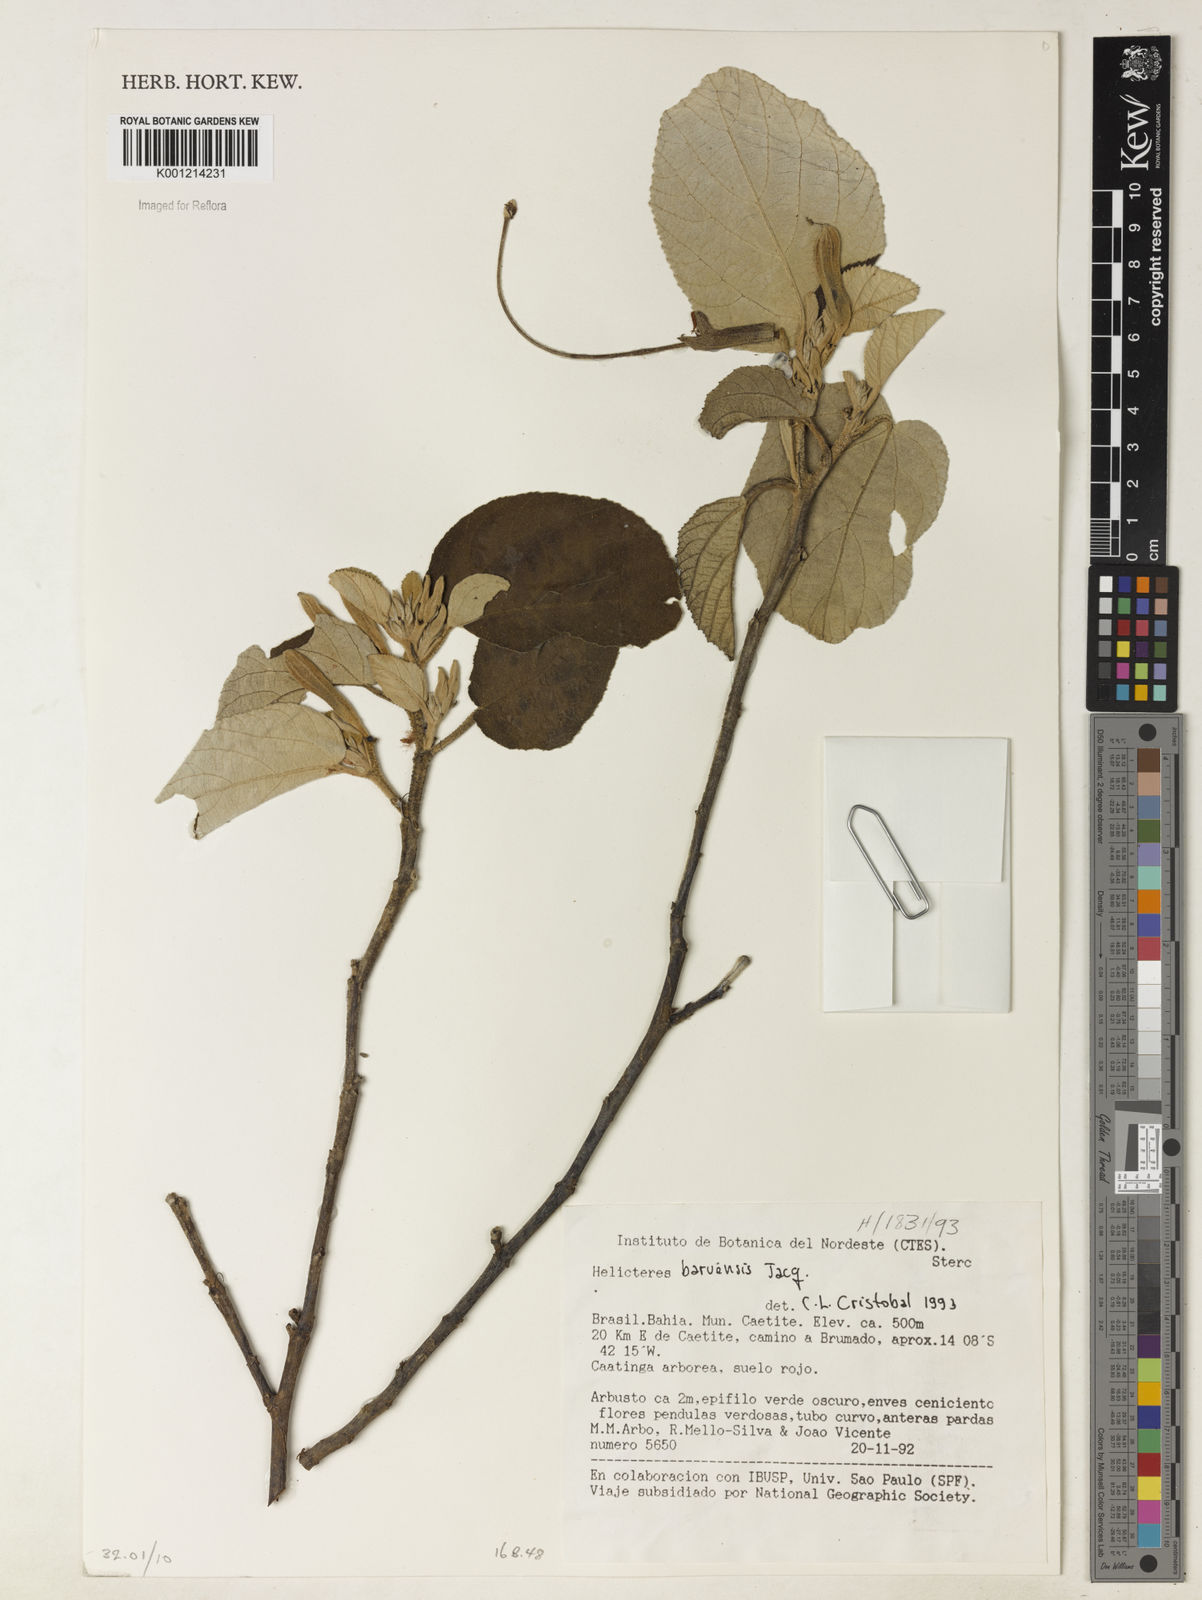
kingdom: Plantae
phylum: Tracheophyta
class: Magnoliopsida
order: Malvales
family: Malvaceae
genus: Helicteres
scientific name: Helicteres baruensis
